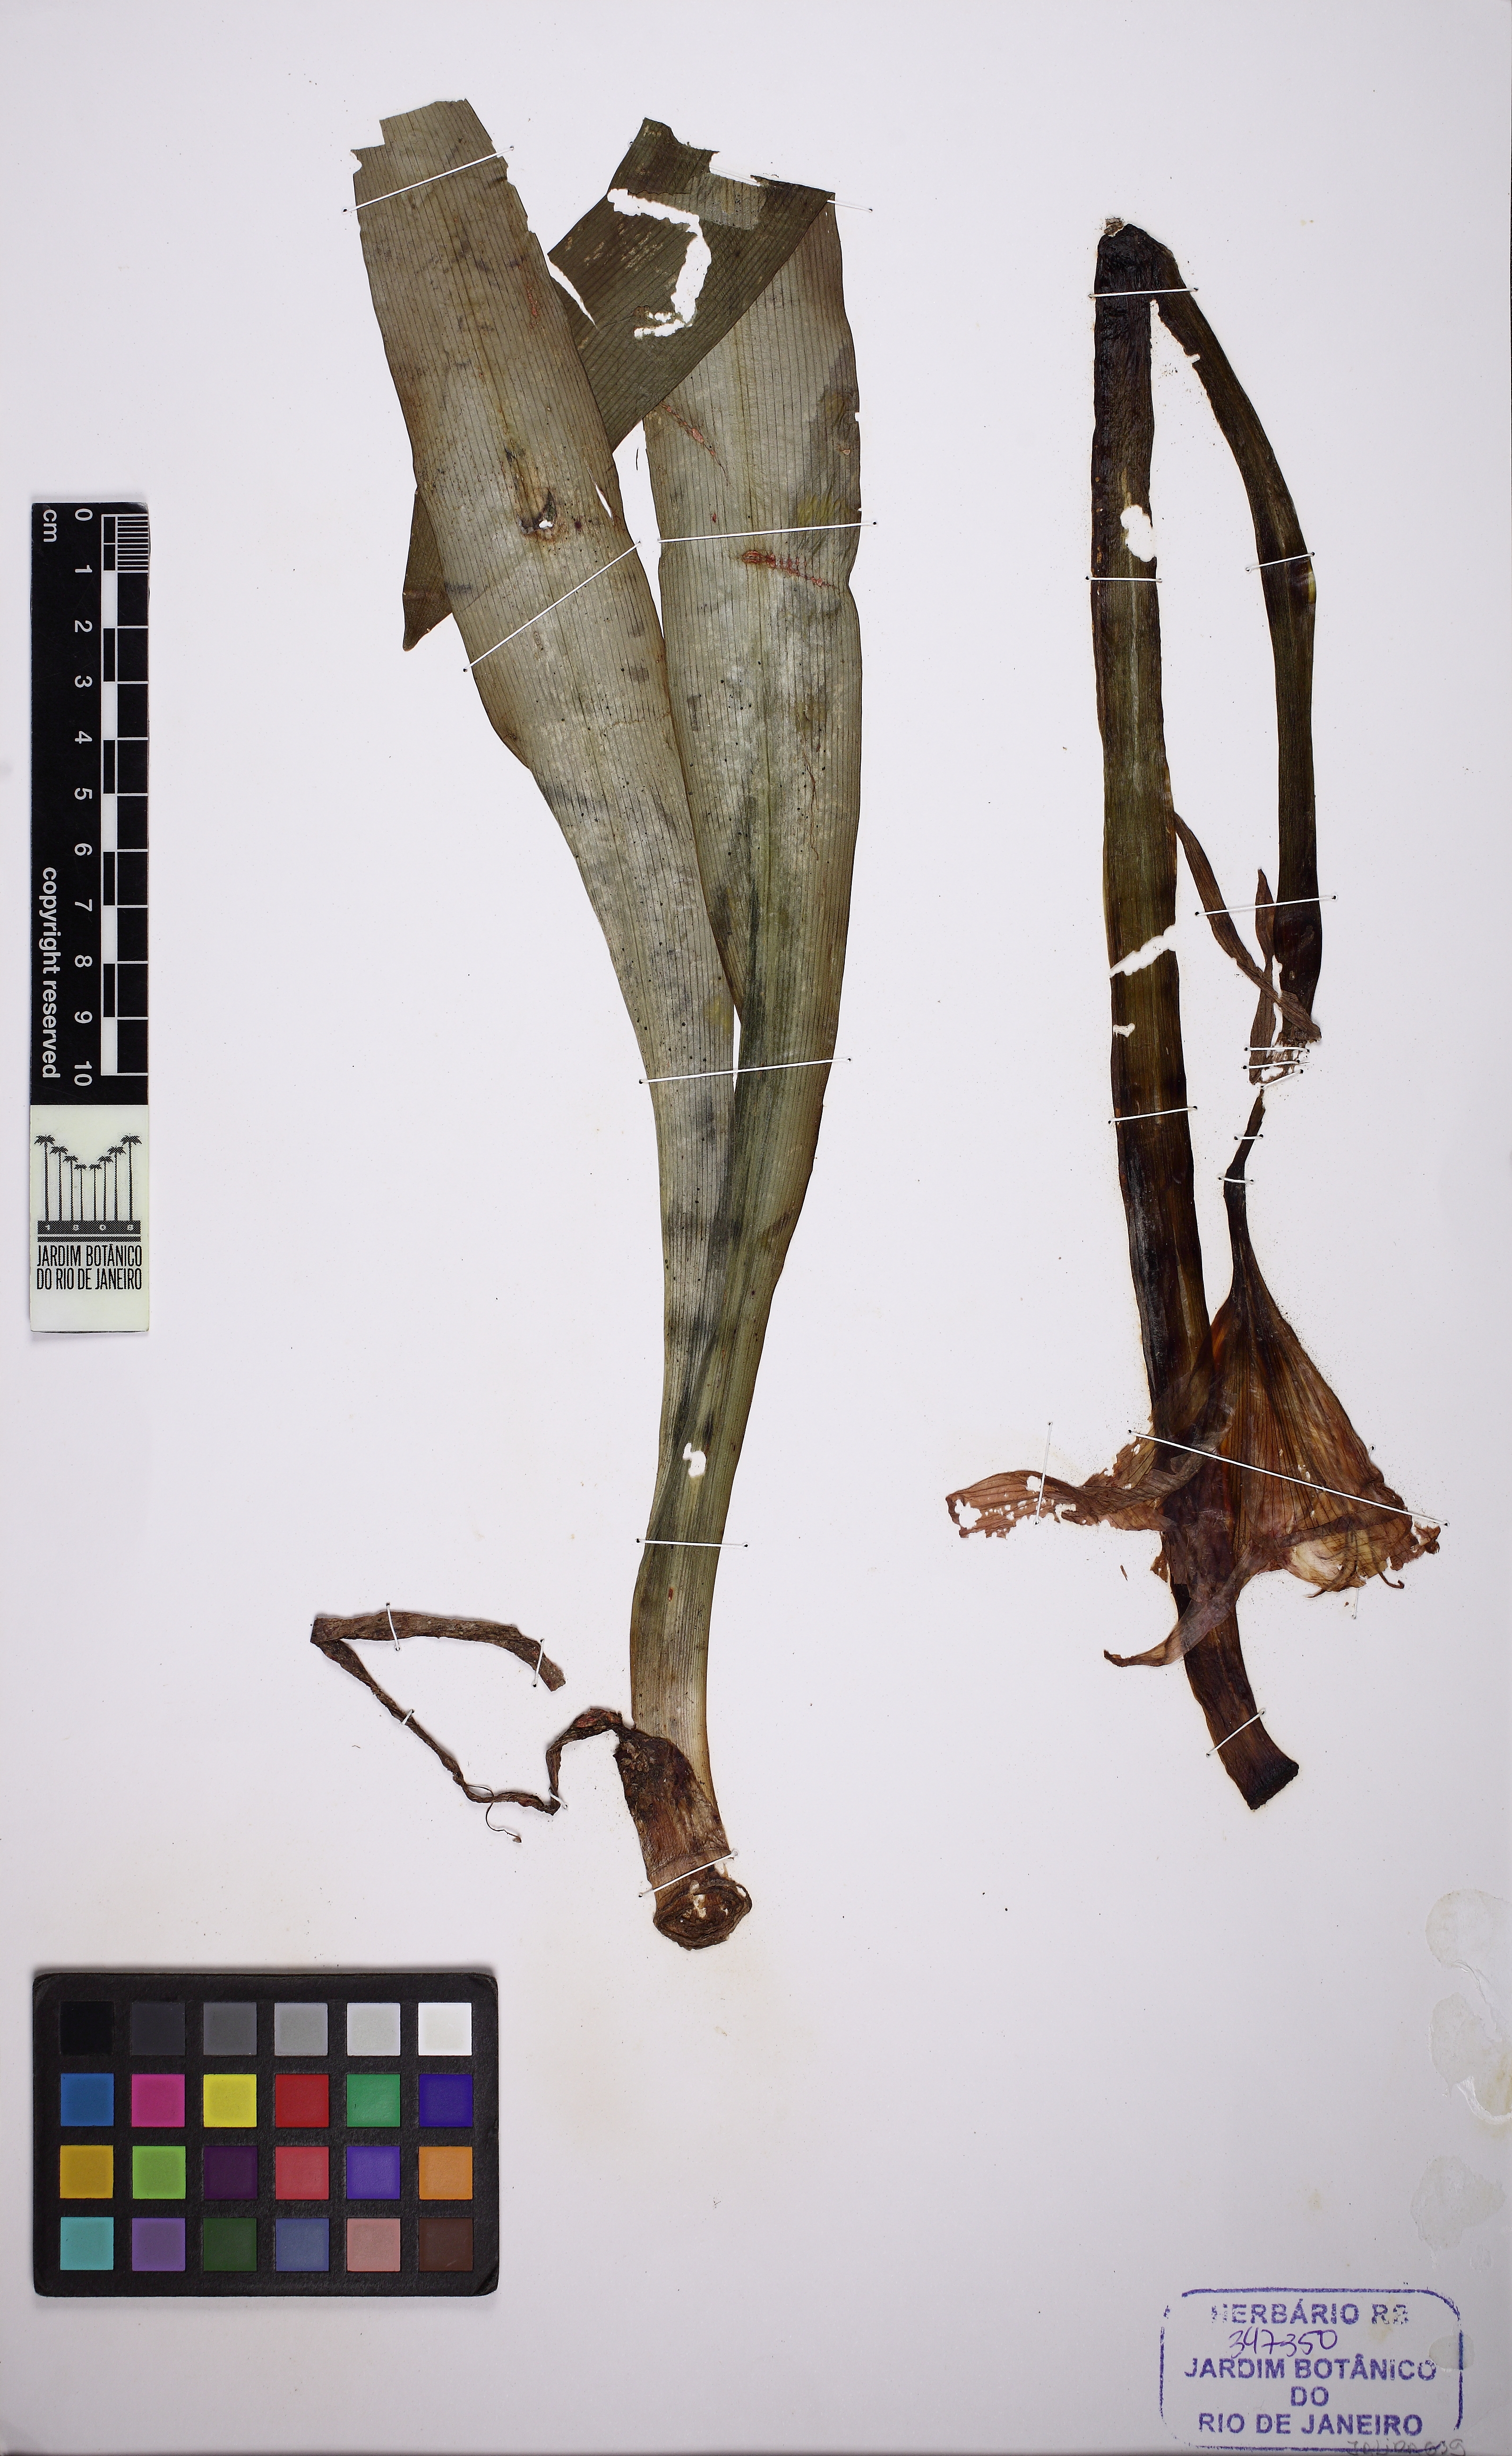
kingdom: Plantae
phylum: Tracheophyta
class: Liliopsida
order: Asparagales
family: Amaryllidaceae
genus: Hippeastrum
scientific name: Hippeastrum goianum
